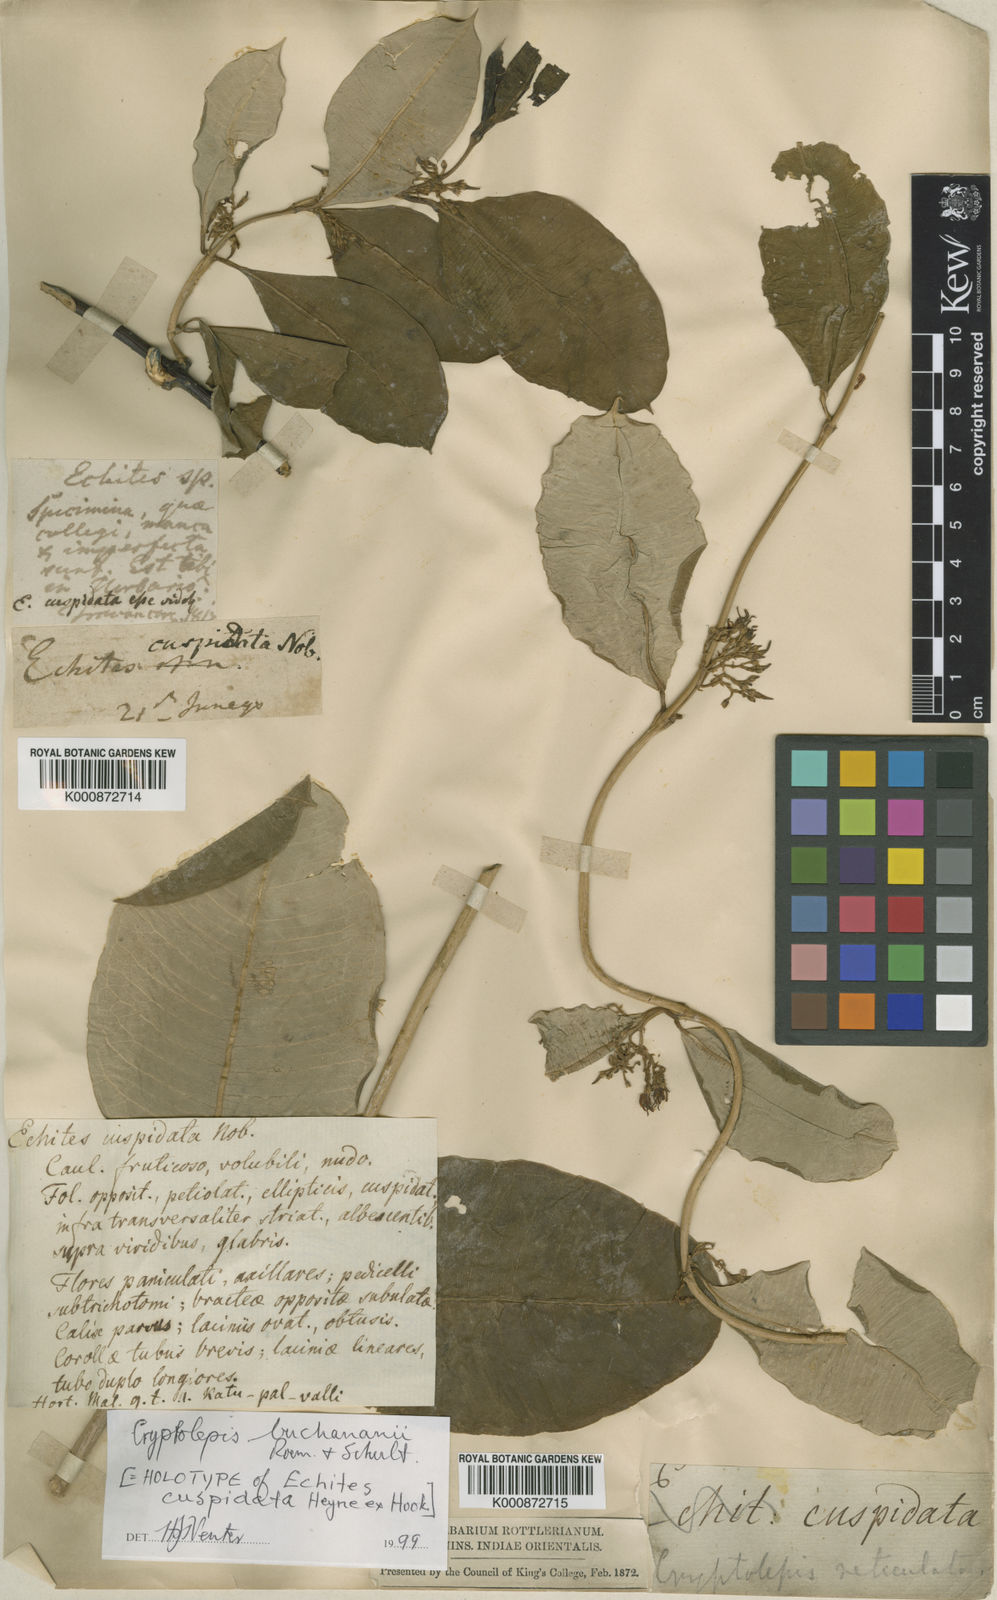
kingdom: Plantae
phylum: Tracheophyta
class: Magnoliopsida
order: Gentianales
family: Apocynaceae
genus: Cryptolepis
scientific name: Cryptolepis buchananii
